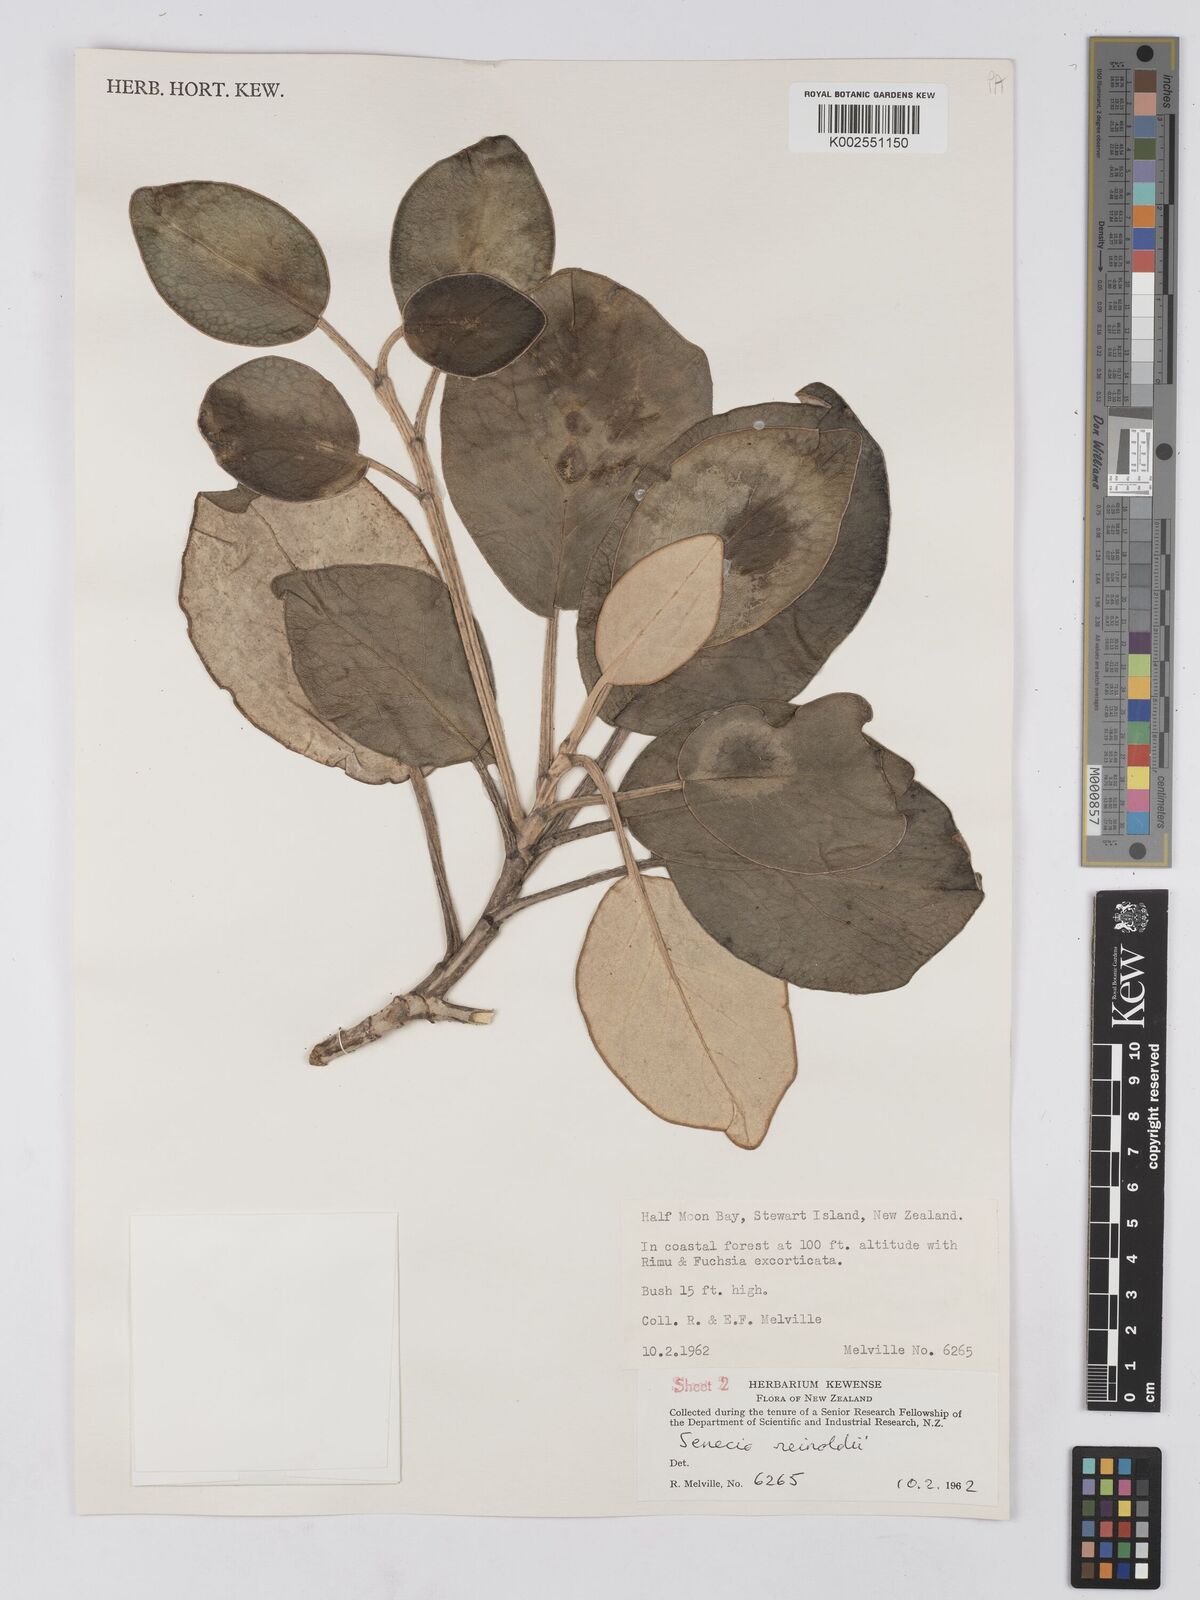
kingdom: Plantae
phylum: Tracheophyta
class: Magnoliopsida
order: Asterales
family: Asteraceae
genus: Brachyglottis
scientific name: Brachyglottis rotundifolia
